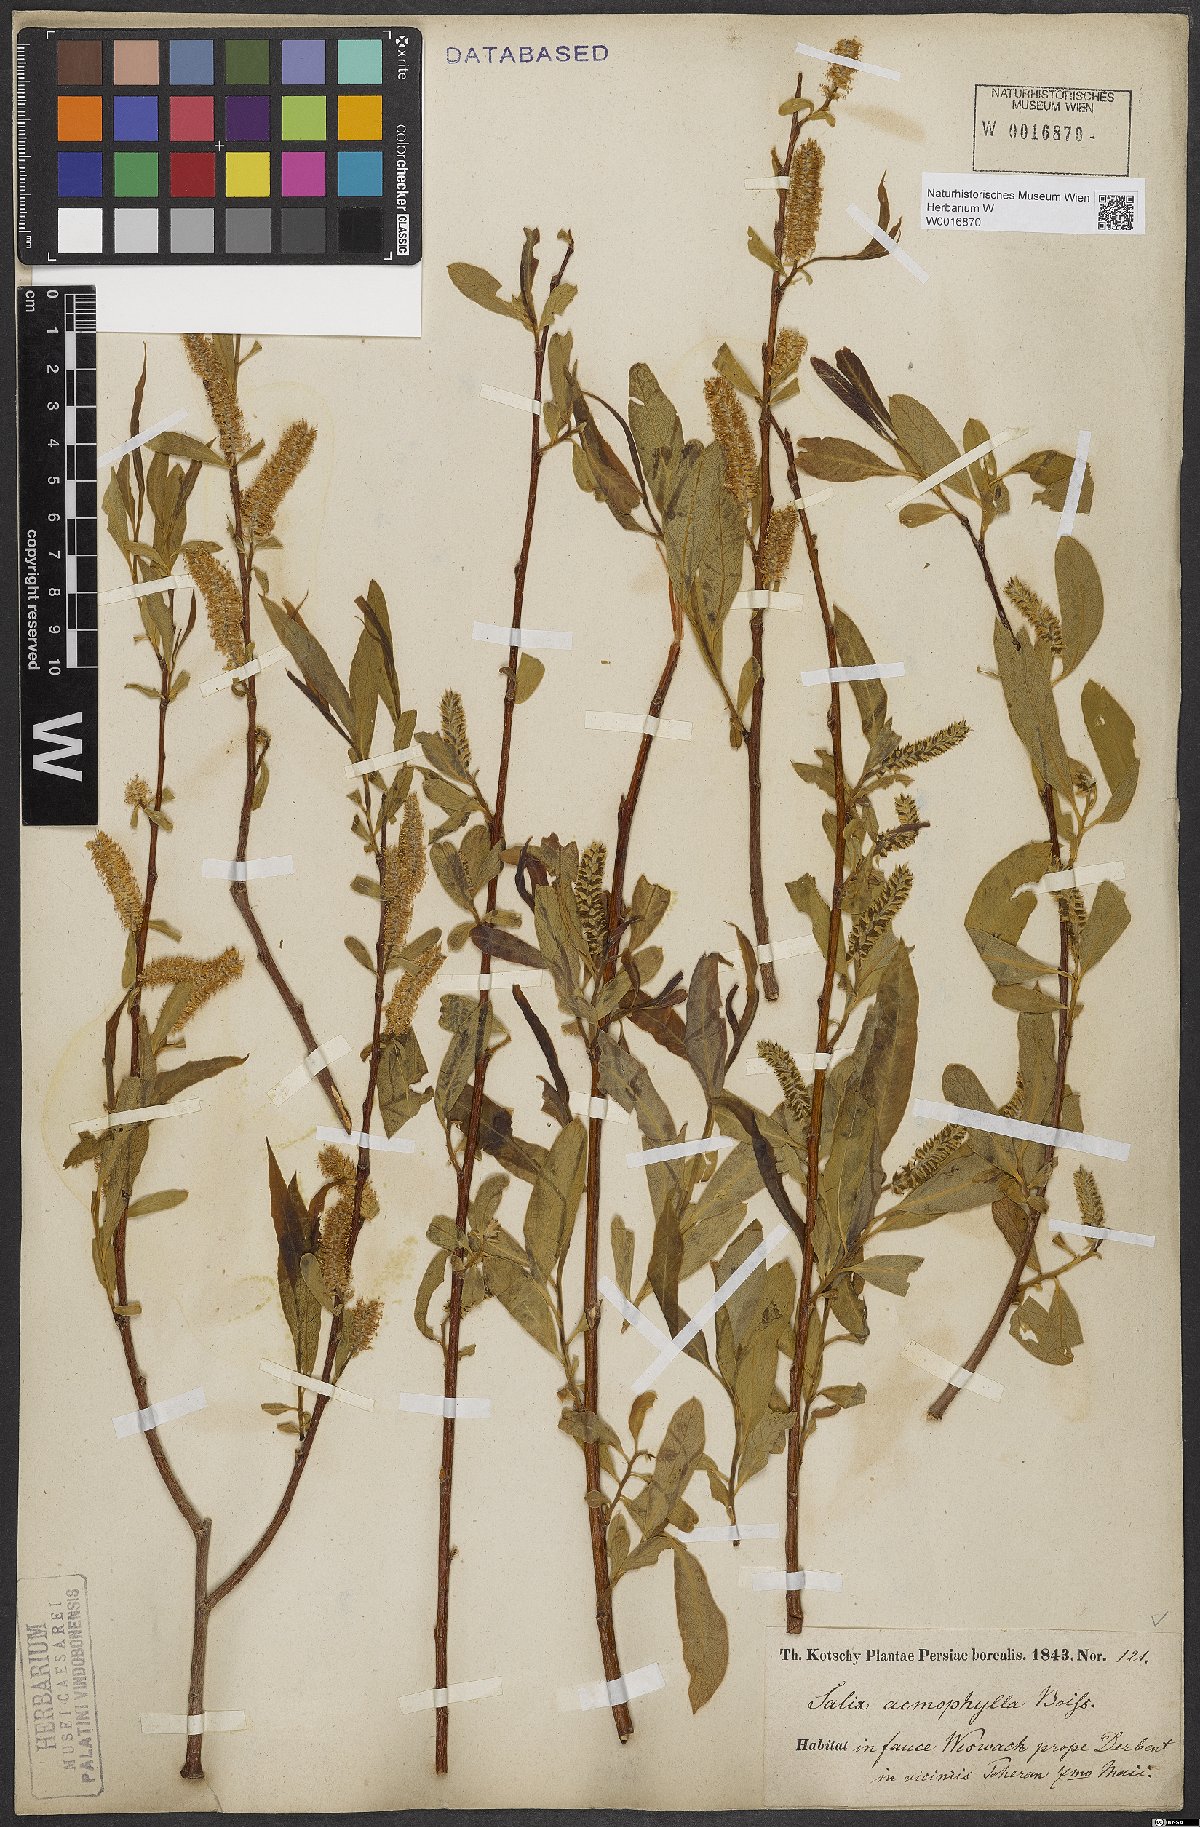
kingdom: Plantae
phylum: Tracheophyta
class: Magnoliopsida
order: Malpighiales
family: Salicaceae
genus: Salix
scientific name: Salix acmophylla
